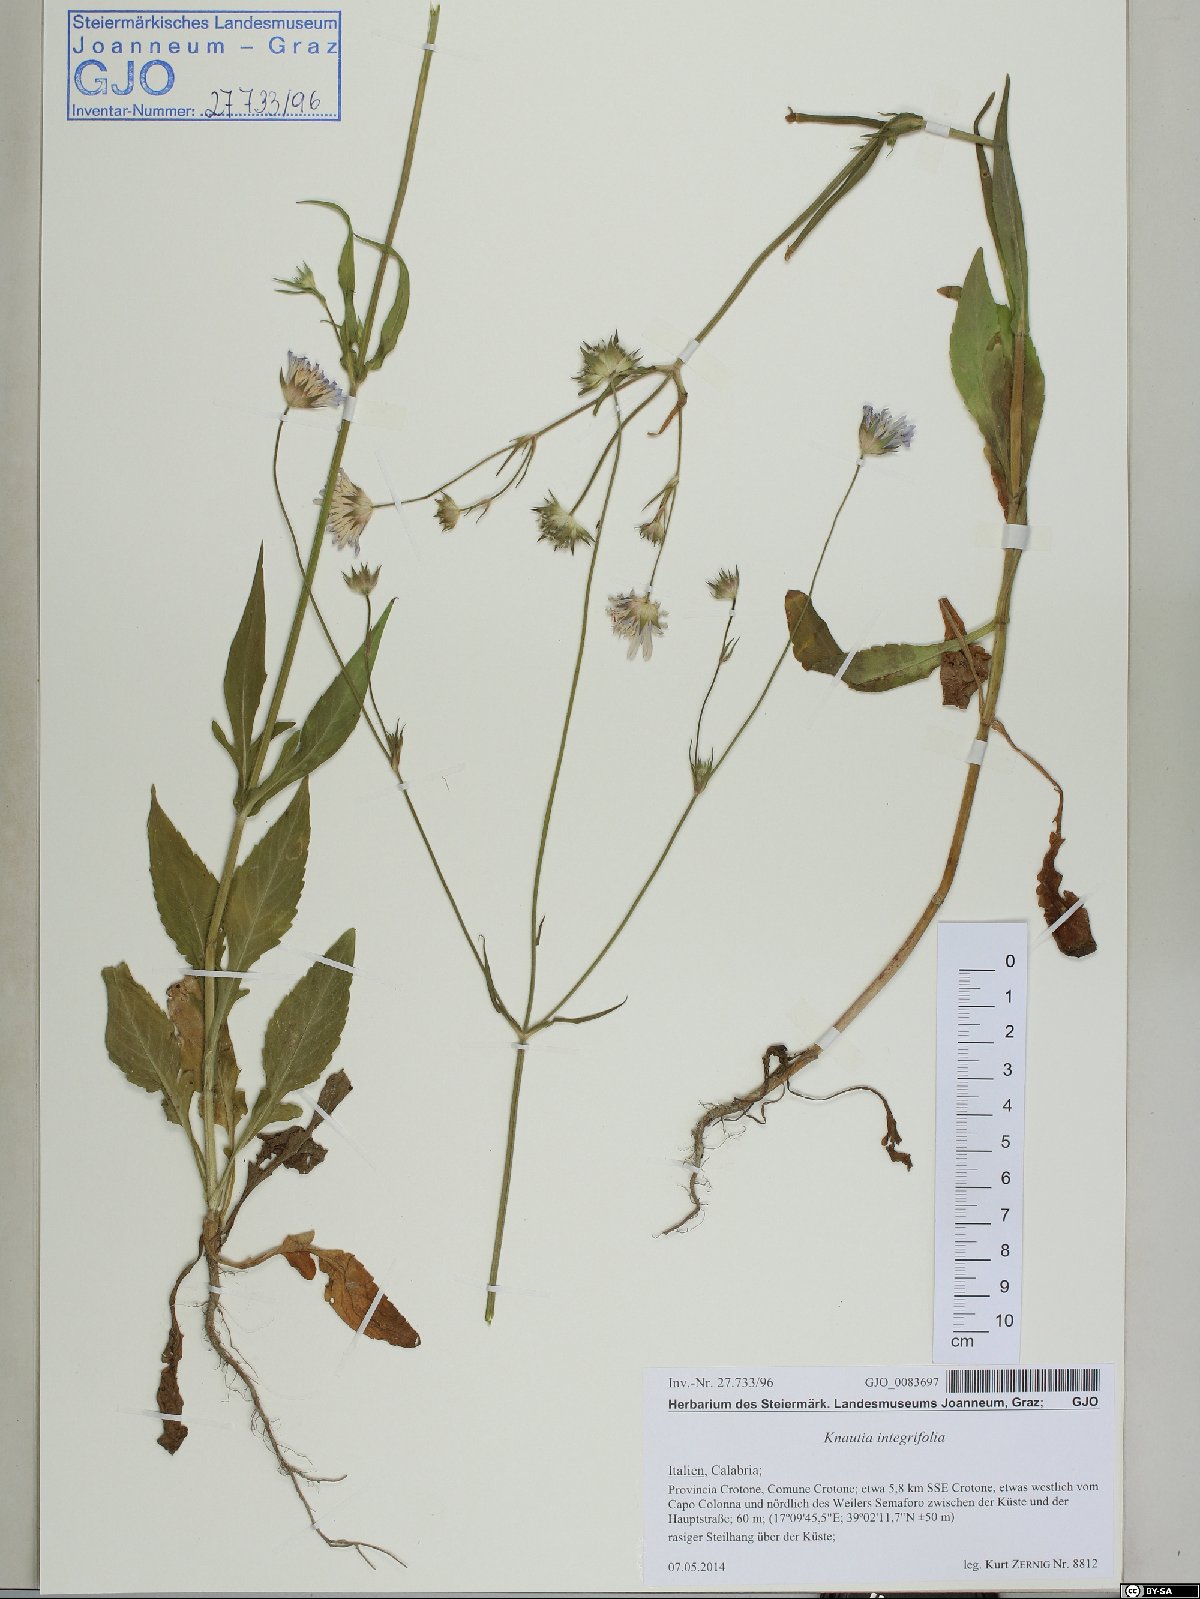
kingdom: Plantae
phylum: Tracheophyta
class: Magnoliopsida
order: Dipsacales
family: Caprifoliaceae
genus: Knautia
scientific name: Knautia integrifolia
